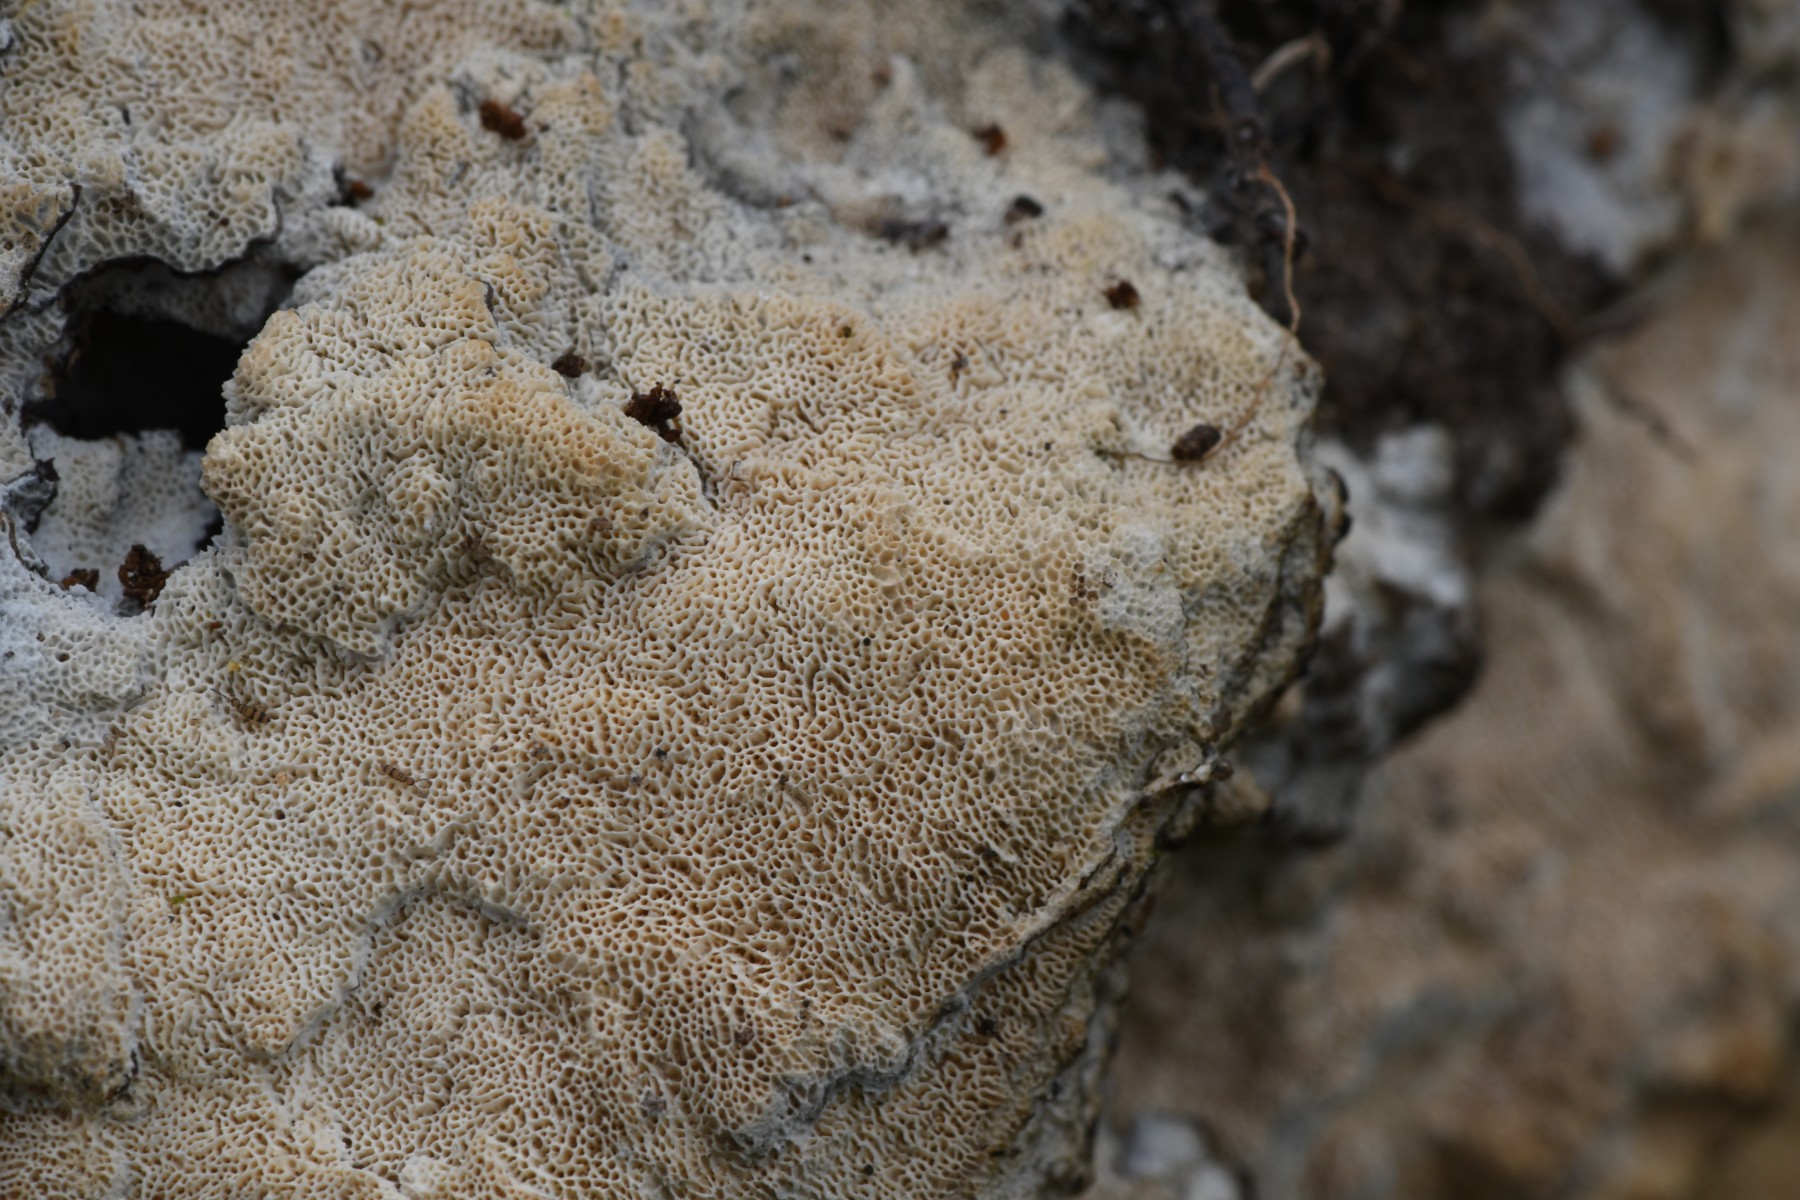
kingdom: Fungi
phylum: Basidiomycota
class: Agaricomycetes
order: Hymenochaetales
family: Schizoporaceae
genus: Xylodon
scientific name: Xylodon subtropicus
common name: labyrint-tandsvamp
